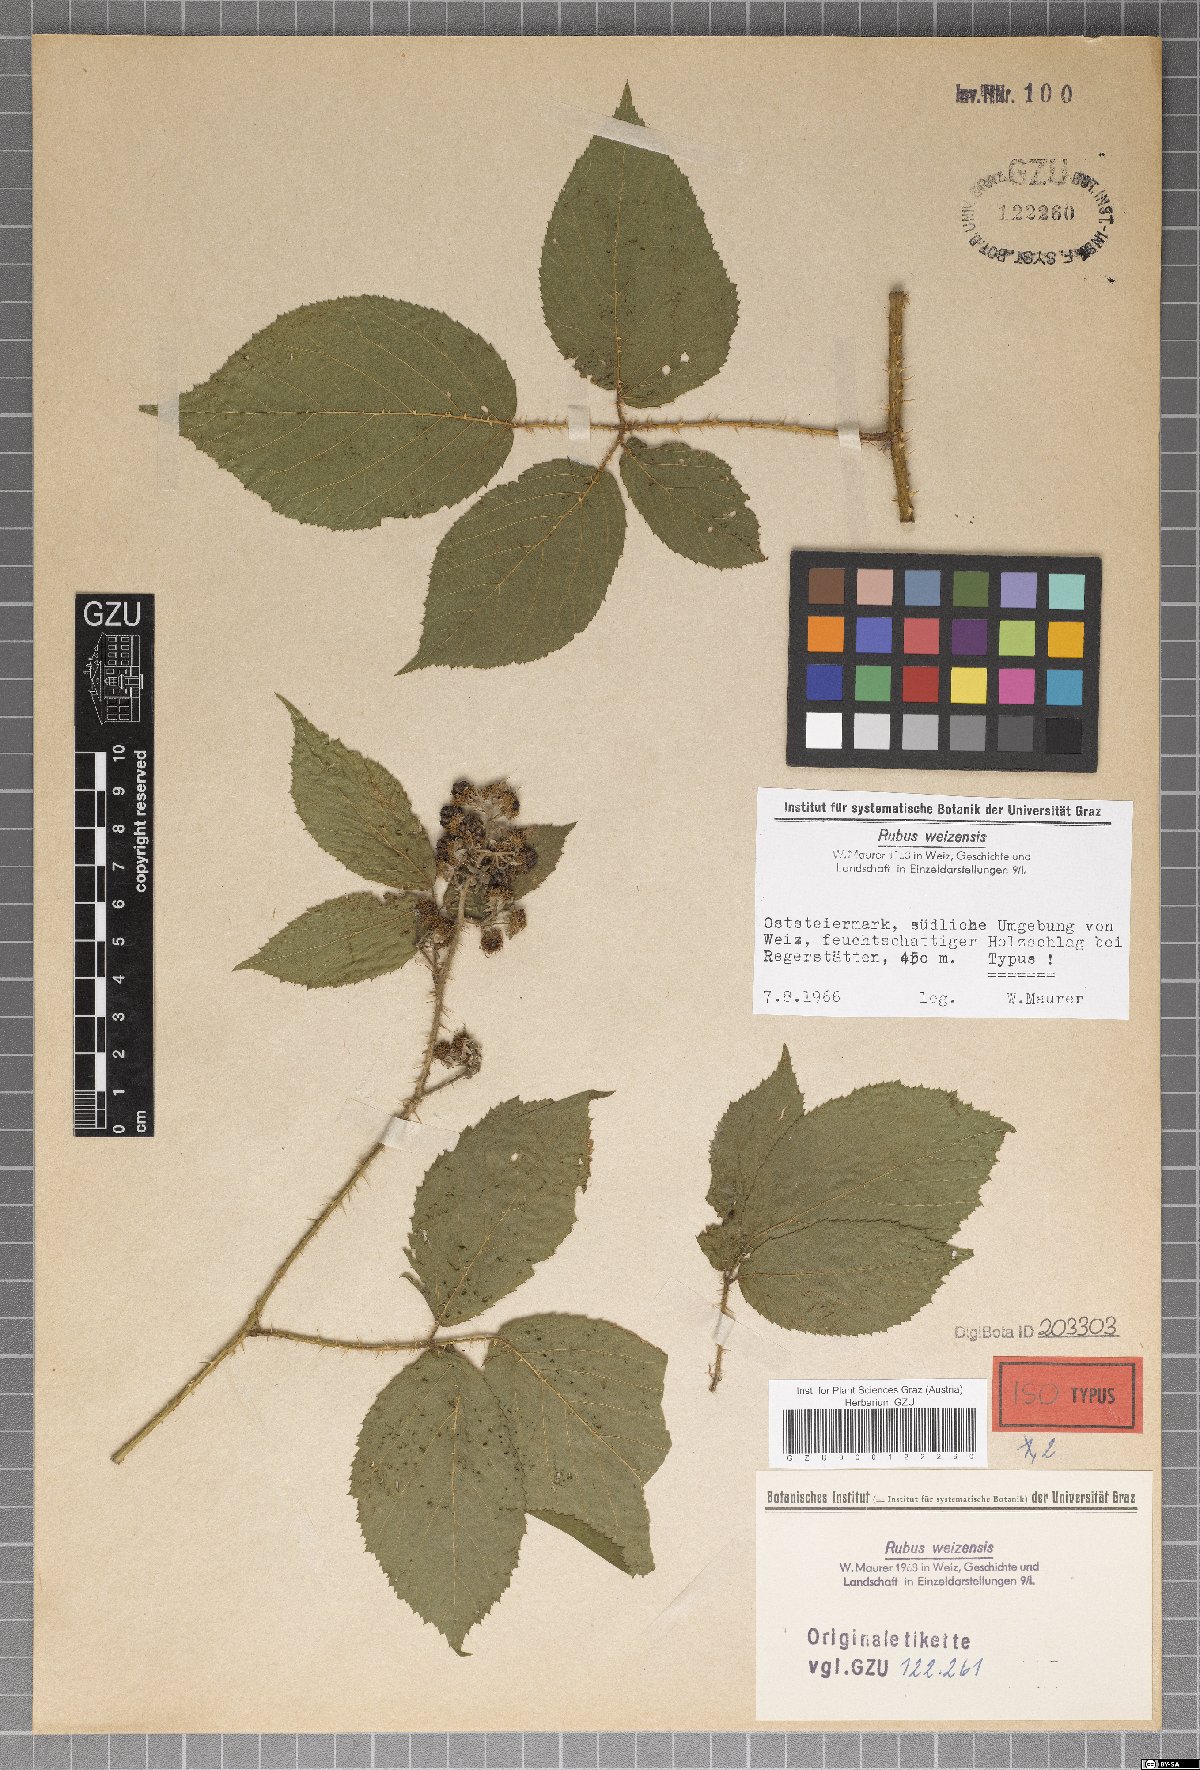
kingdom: Plantae
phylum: Tracheophyta
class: Magnoliopsida
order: Rosales
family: Rosaceae
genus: Rubus
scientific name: Rubus weizensis
